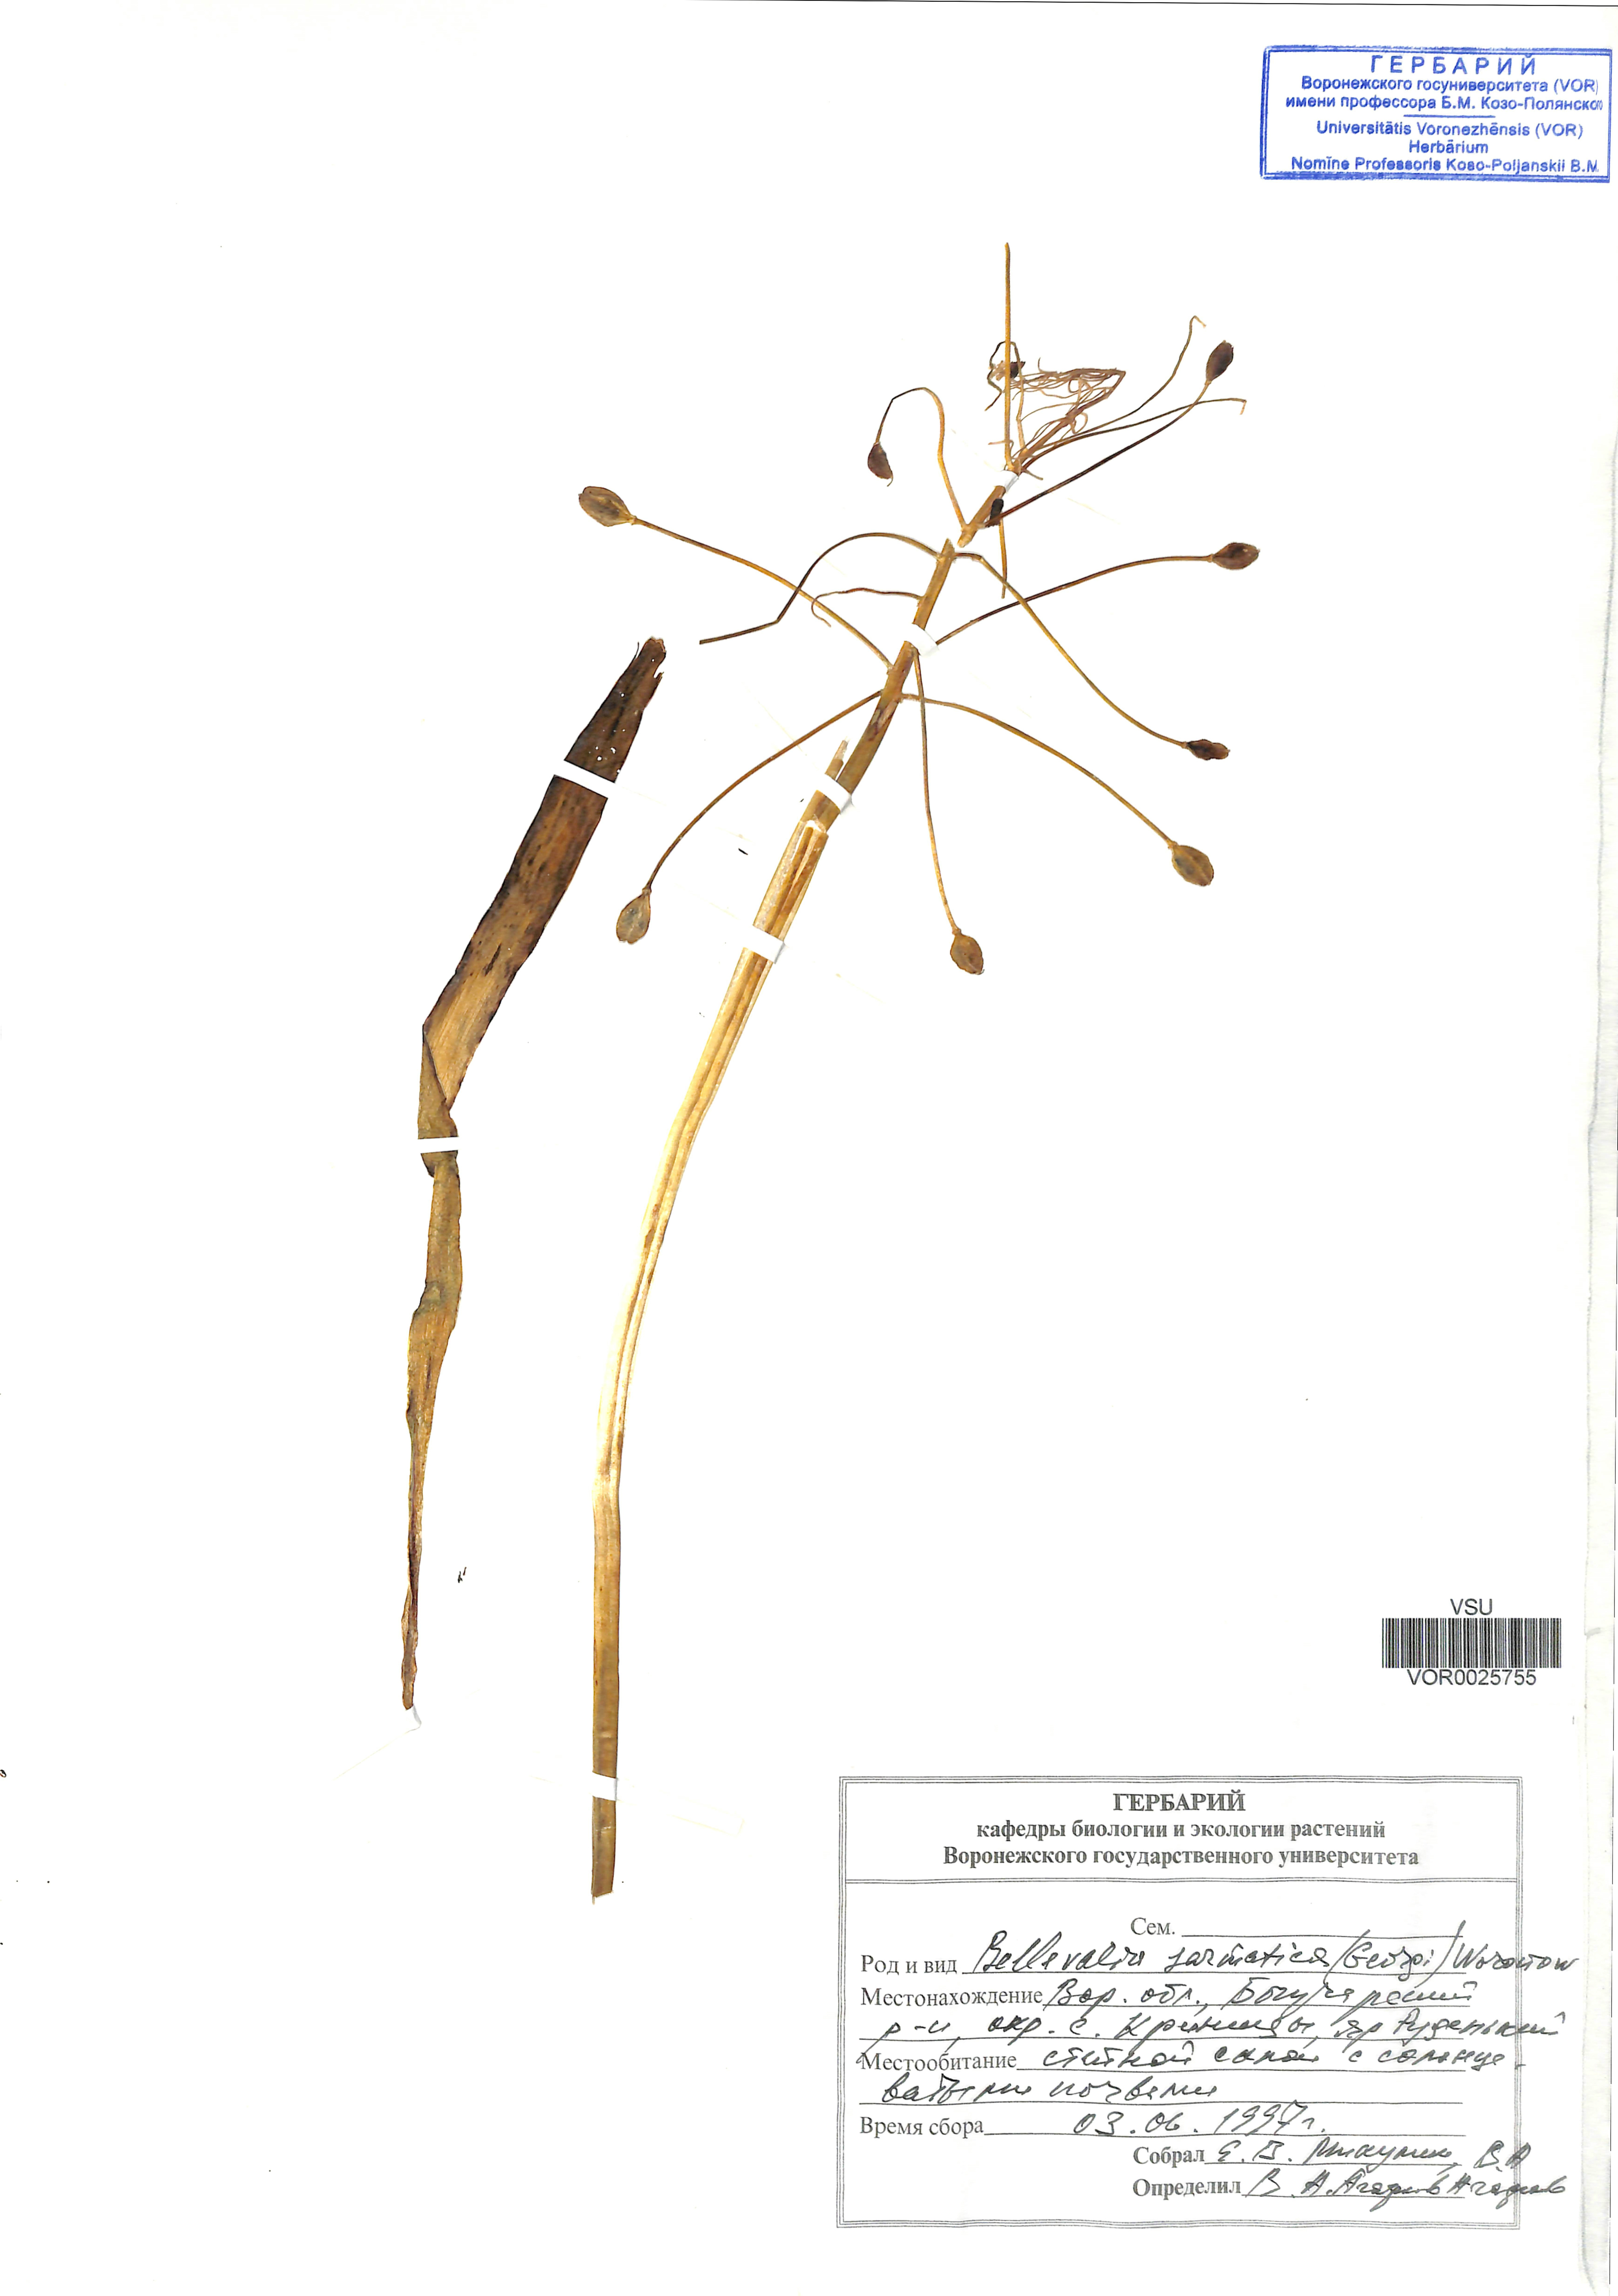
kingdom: Plantae
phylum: Tracheophyta
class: Liliopsida
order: Asparagales
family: Asparagaceae
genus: Bellevalia
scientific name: Bellevalia speciosa
